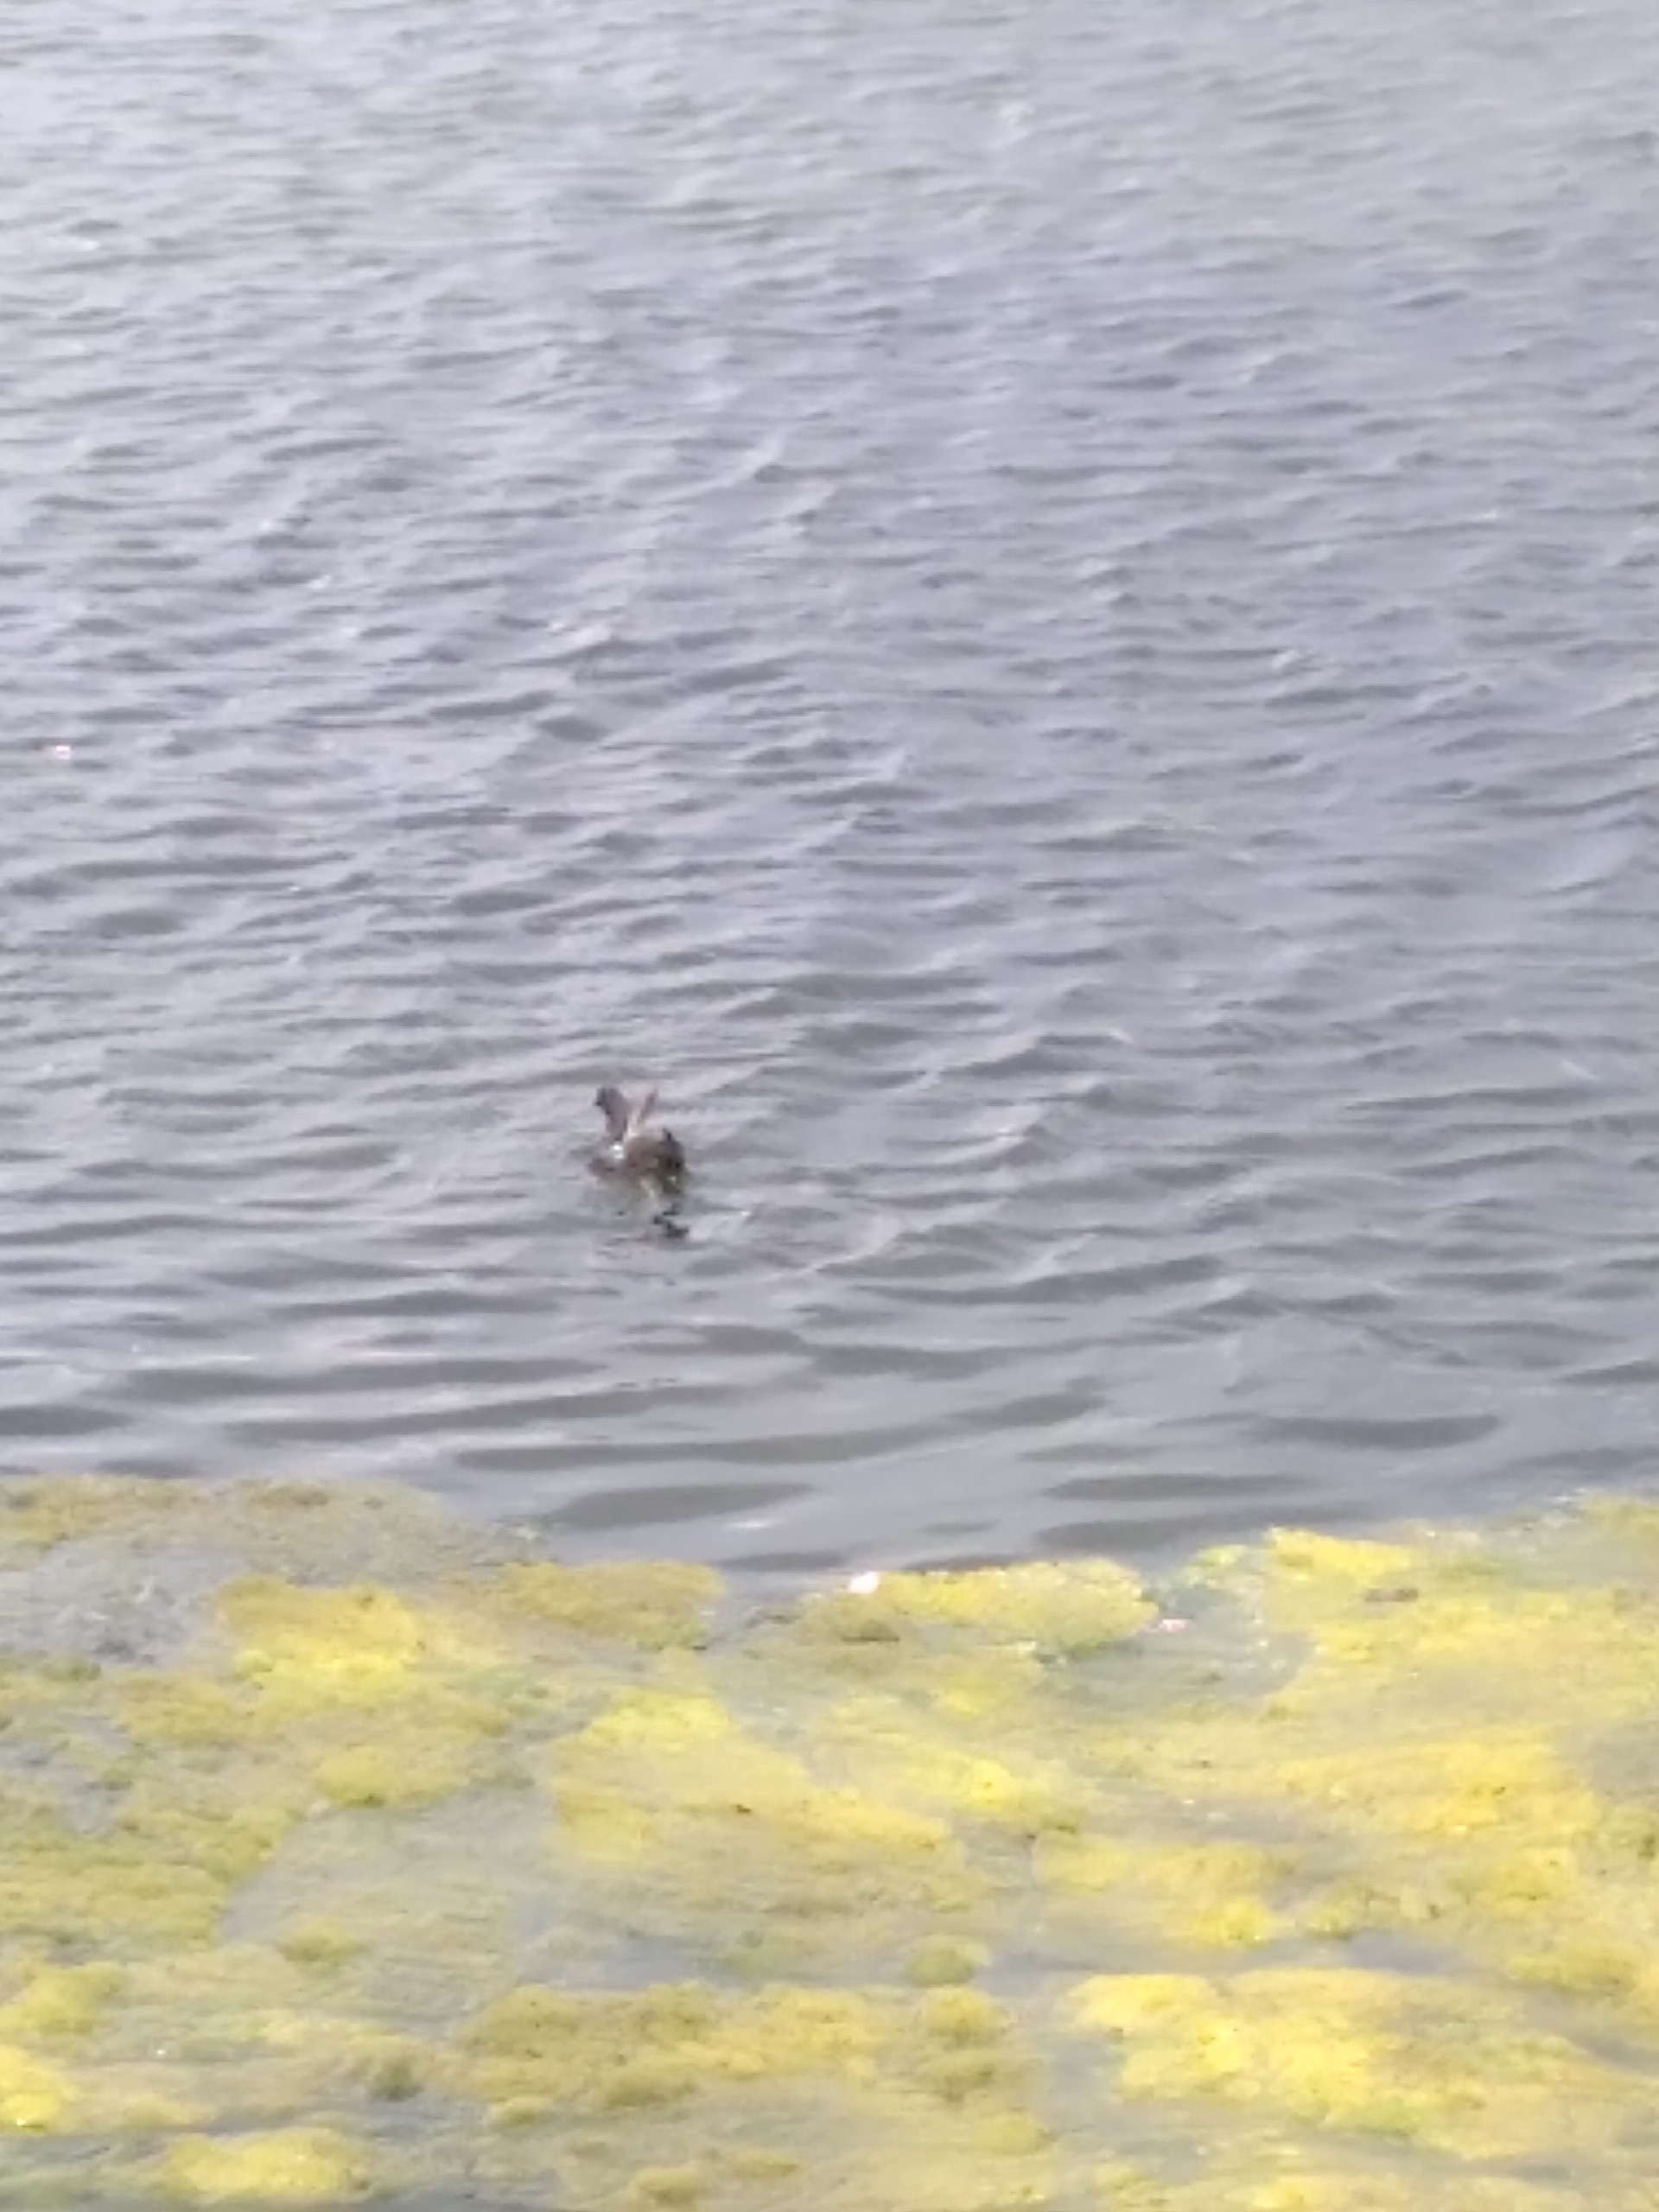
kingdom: Animalia
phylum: Chordata
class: Aves
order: Gruiformes
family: Rallidae
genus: Gallinula
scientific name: Gallinula chloropus
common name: Grønbenet rørhøne
